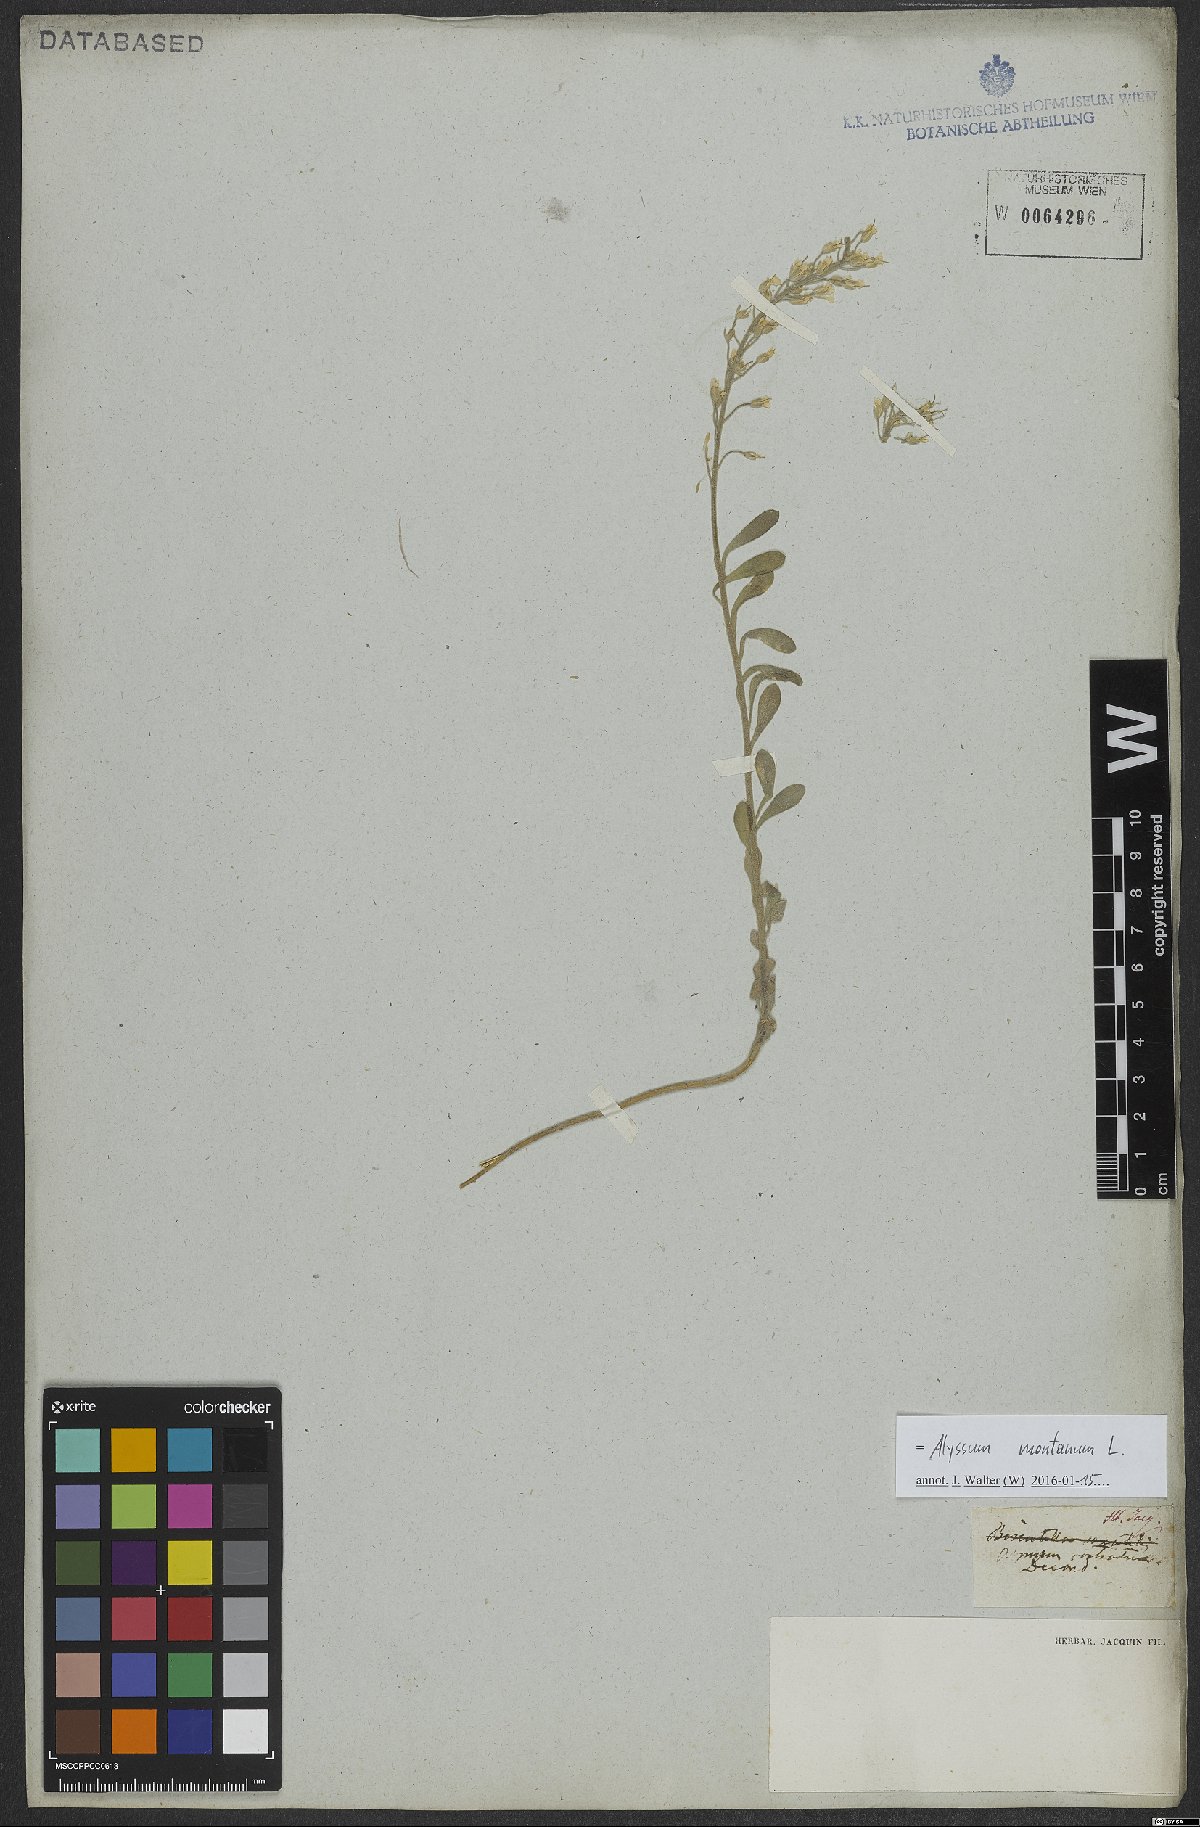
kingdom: Plantae
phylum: Tracheophyta
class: Magnoliopsida
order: Brassicales
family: Brassicaceae
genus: Alyssum
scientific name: Alyssum montanum
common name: Mountain alison
